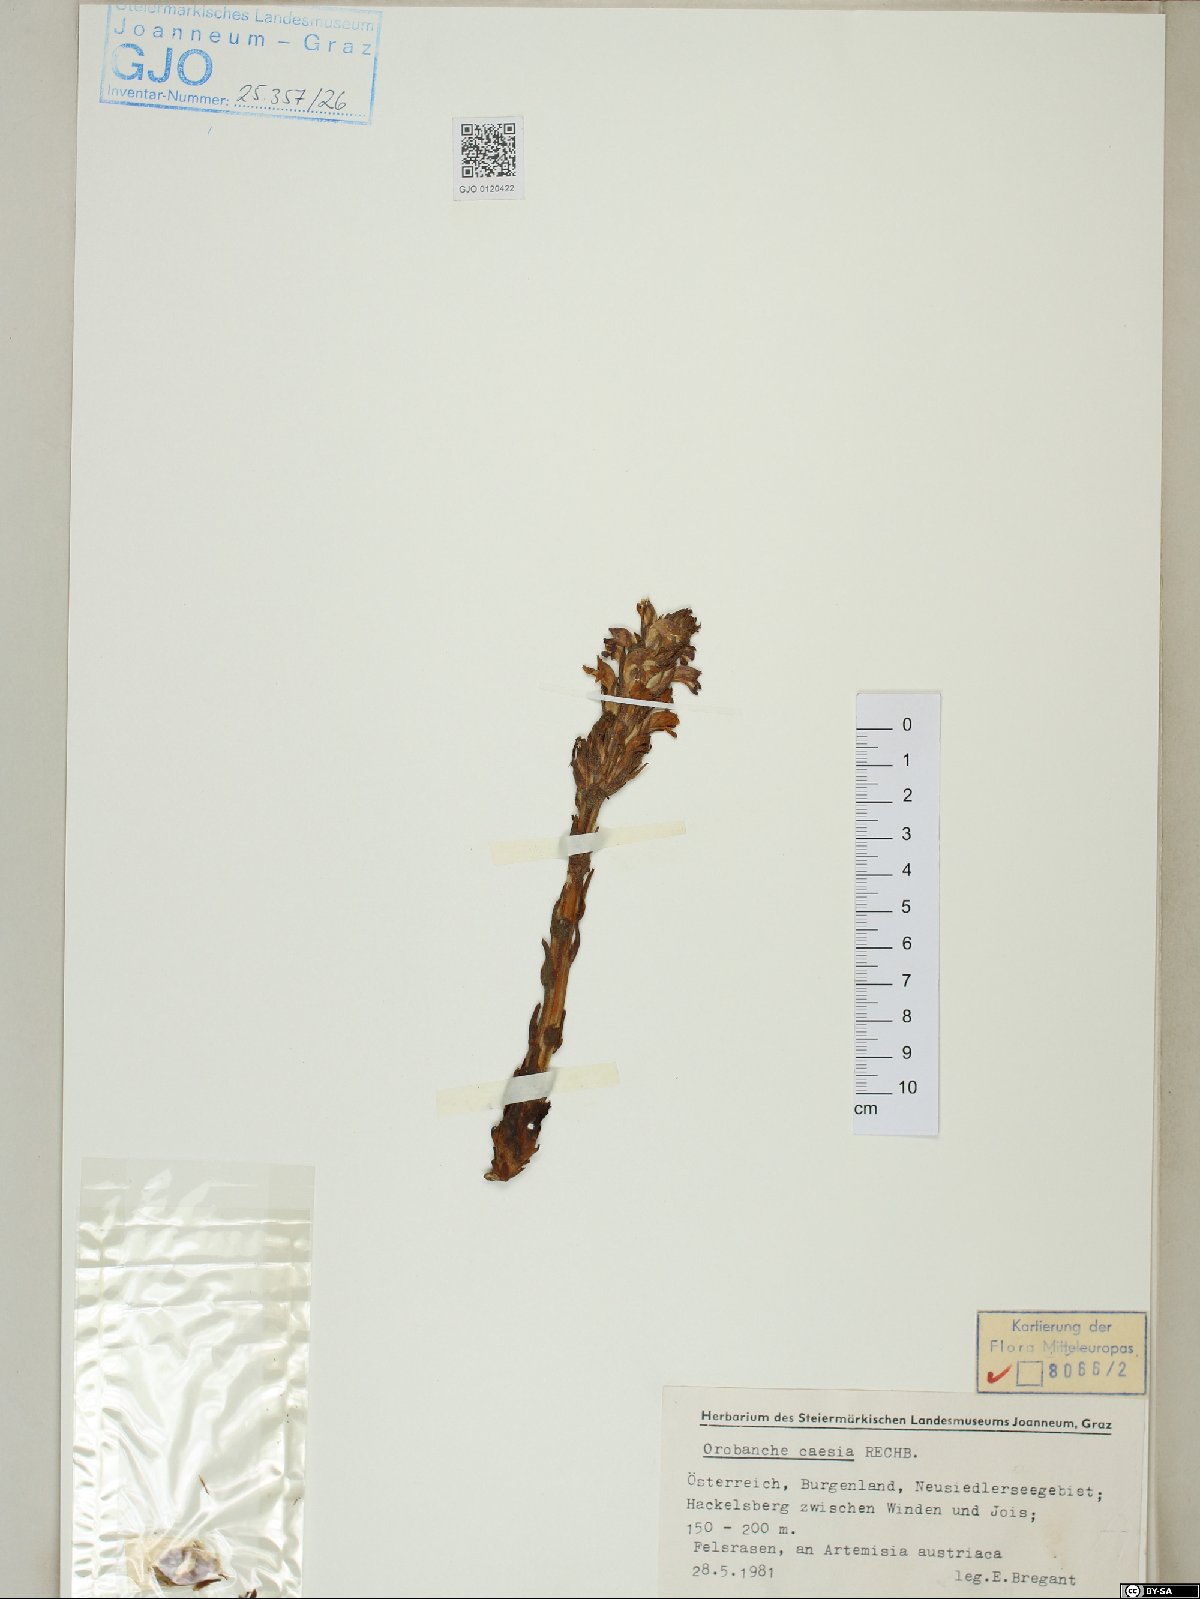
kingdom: Plantae
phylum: Tracheophyta
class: Magnoliopsida
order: Lamiales
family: Orobanchaceae
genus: Phelipanche
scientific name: Phelipanche caesia
